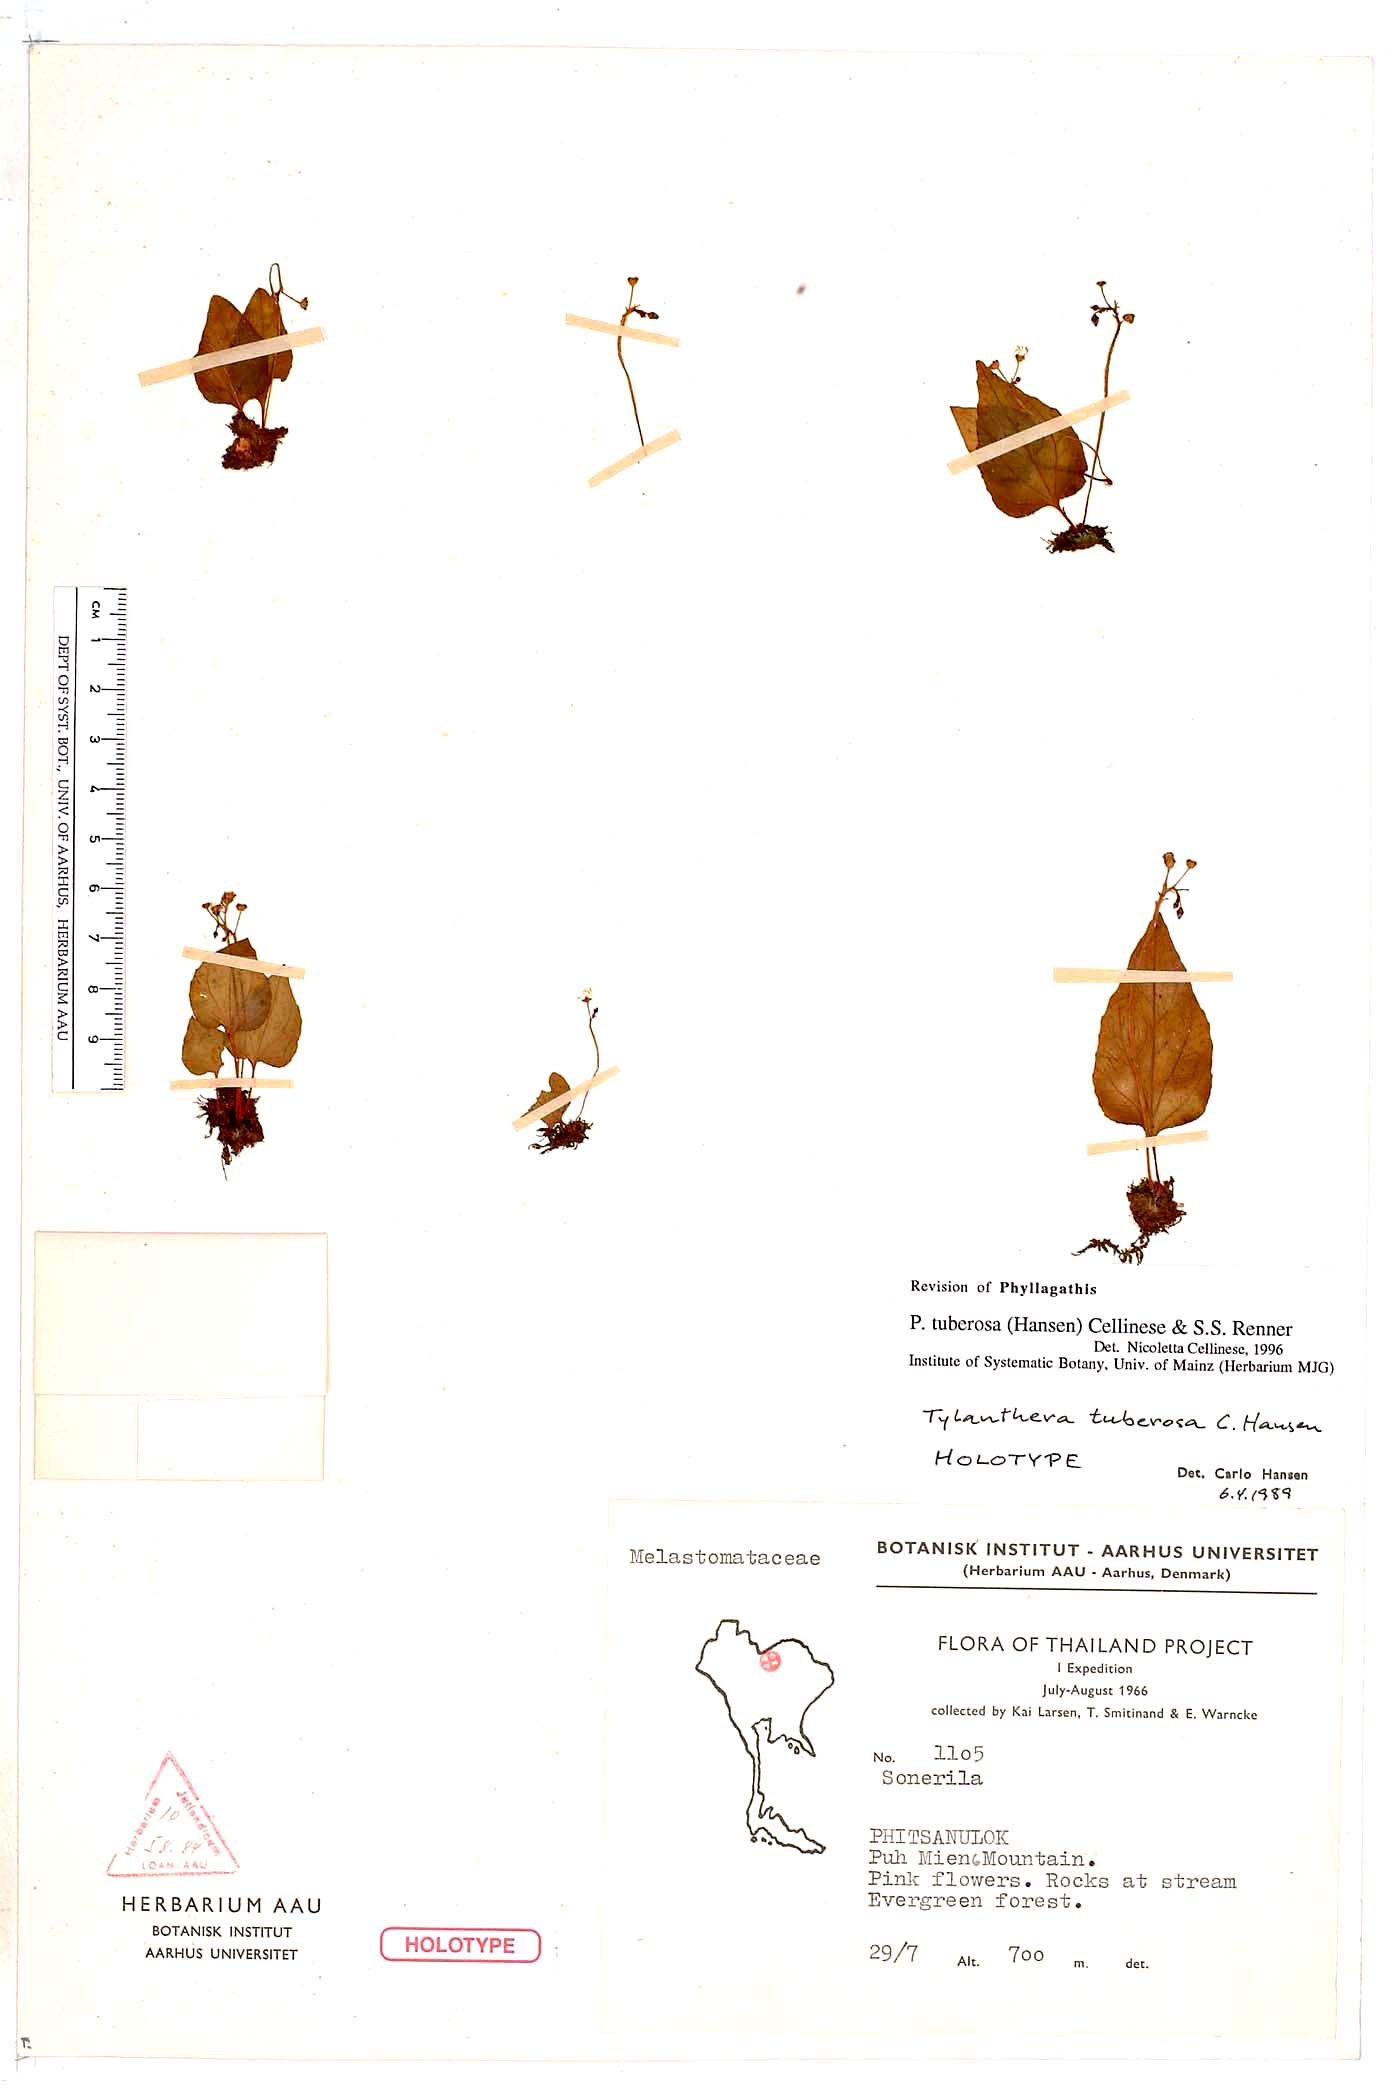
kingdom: Plantae
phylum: Tracheophyta
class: Magnoliopsida
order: Myrtales
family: Melastomataceae
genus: Tylanthera
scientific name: Tylanthera tuberosa
